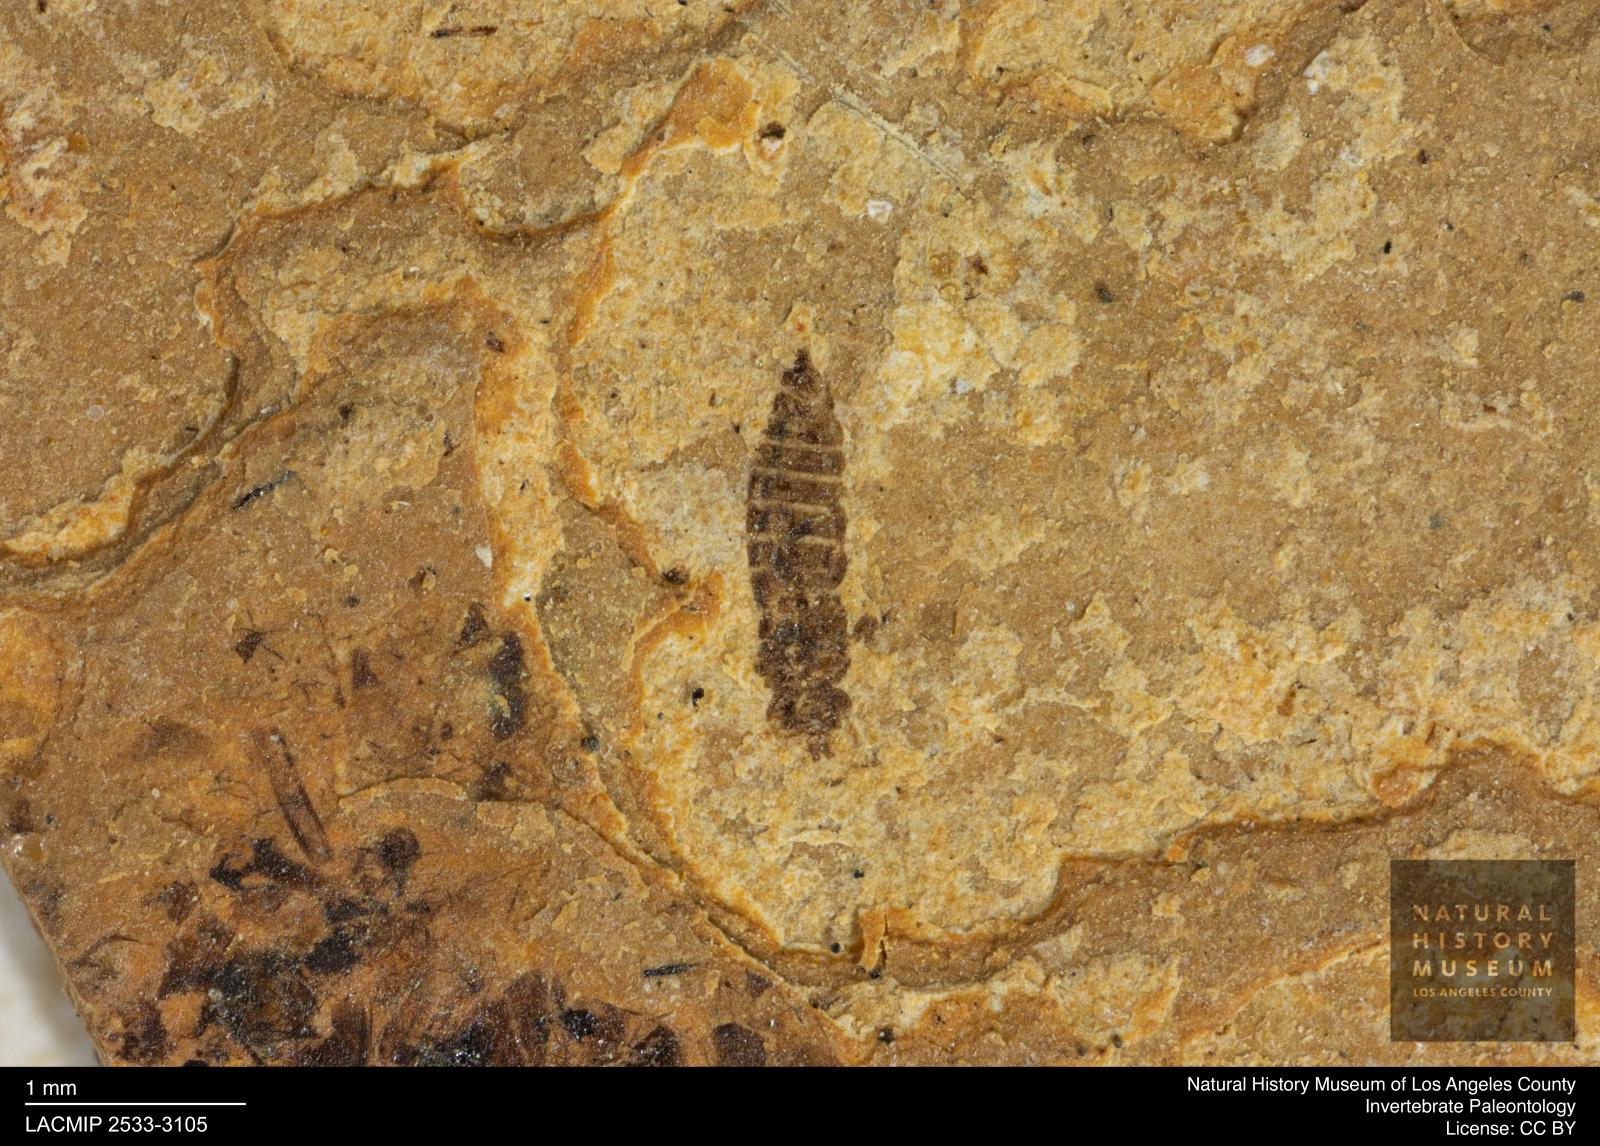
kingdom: Animalia
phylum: Arthropoda
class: Insecta
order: Thysanoptera
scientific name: Thysanoptera
